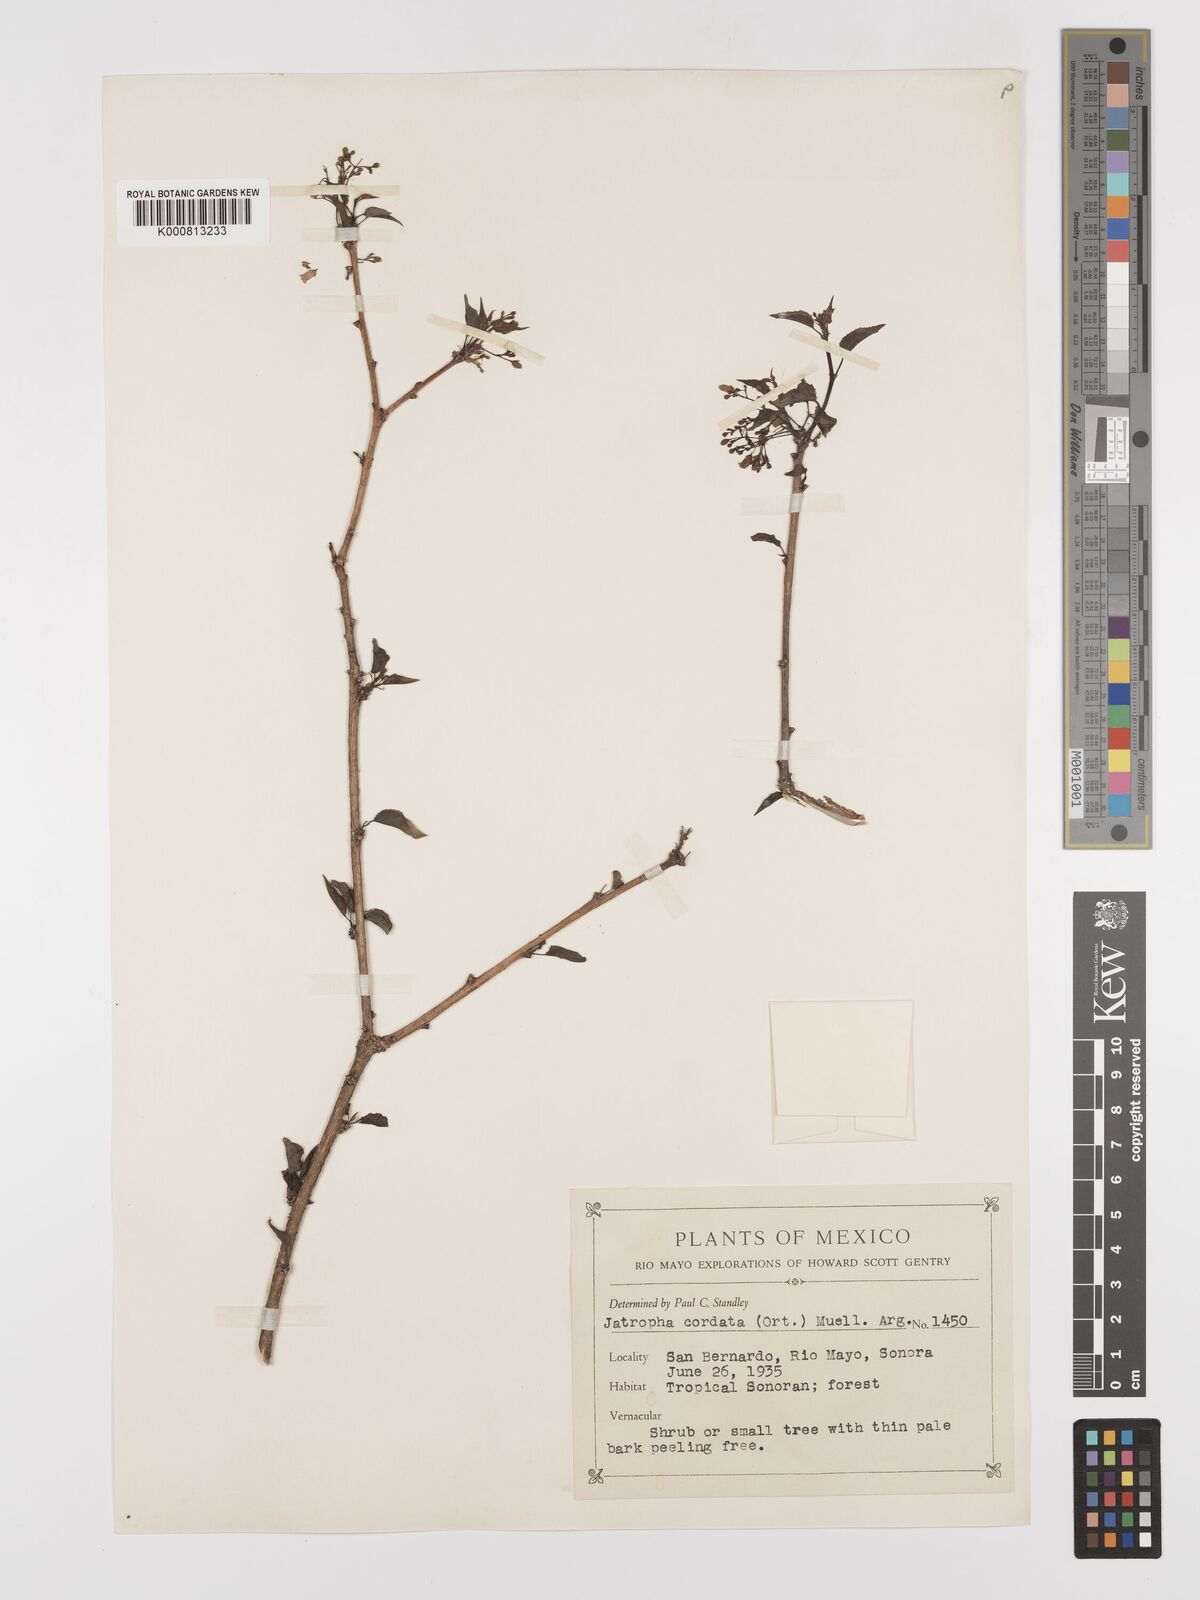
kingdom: Plantae
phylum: Tracheophyta
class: Magnoliopsida
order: Malpighiales
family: Euphorbiaceae
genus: Jatropha
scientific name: Jatropha
